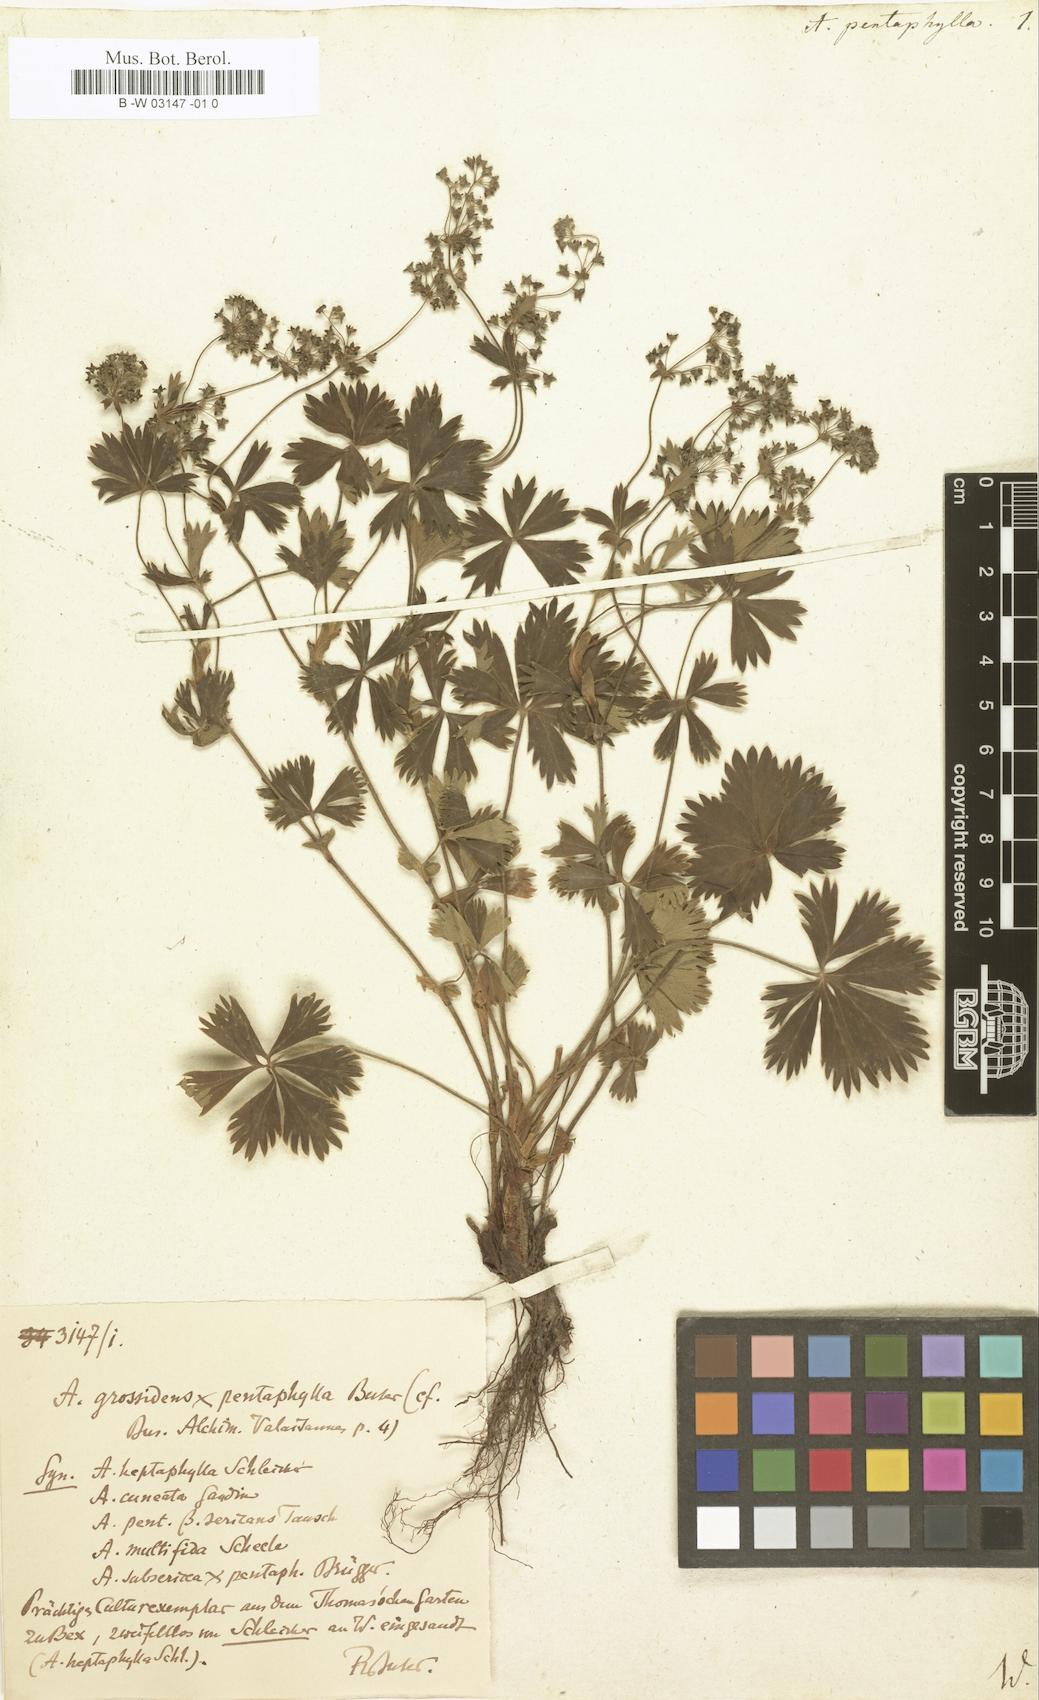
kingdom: Plantae
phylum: Tracheophyta
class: Magnoliopsida
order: Rosales
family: Rosaceae
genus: Alchemilla
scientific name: Alchemilla pentaphyllea
